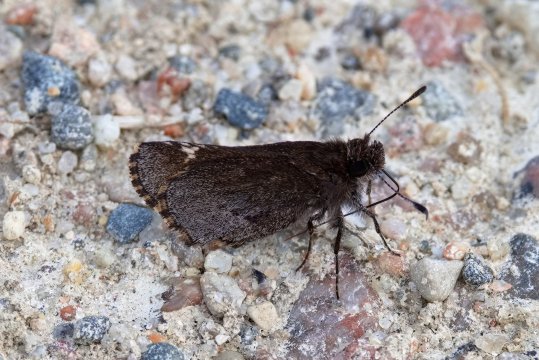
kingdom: Animalia
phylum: Arthropoda
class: Insecta
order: Lepidoptera
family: Hesperiidae
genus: Mastor
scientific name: Mastor vialis
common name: Common Roadside-Skipper
